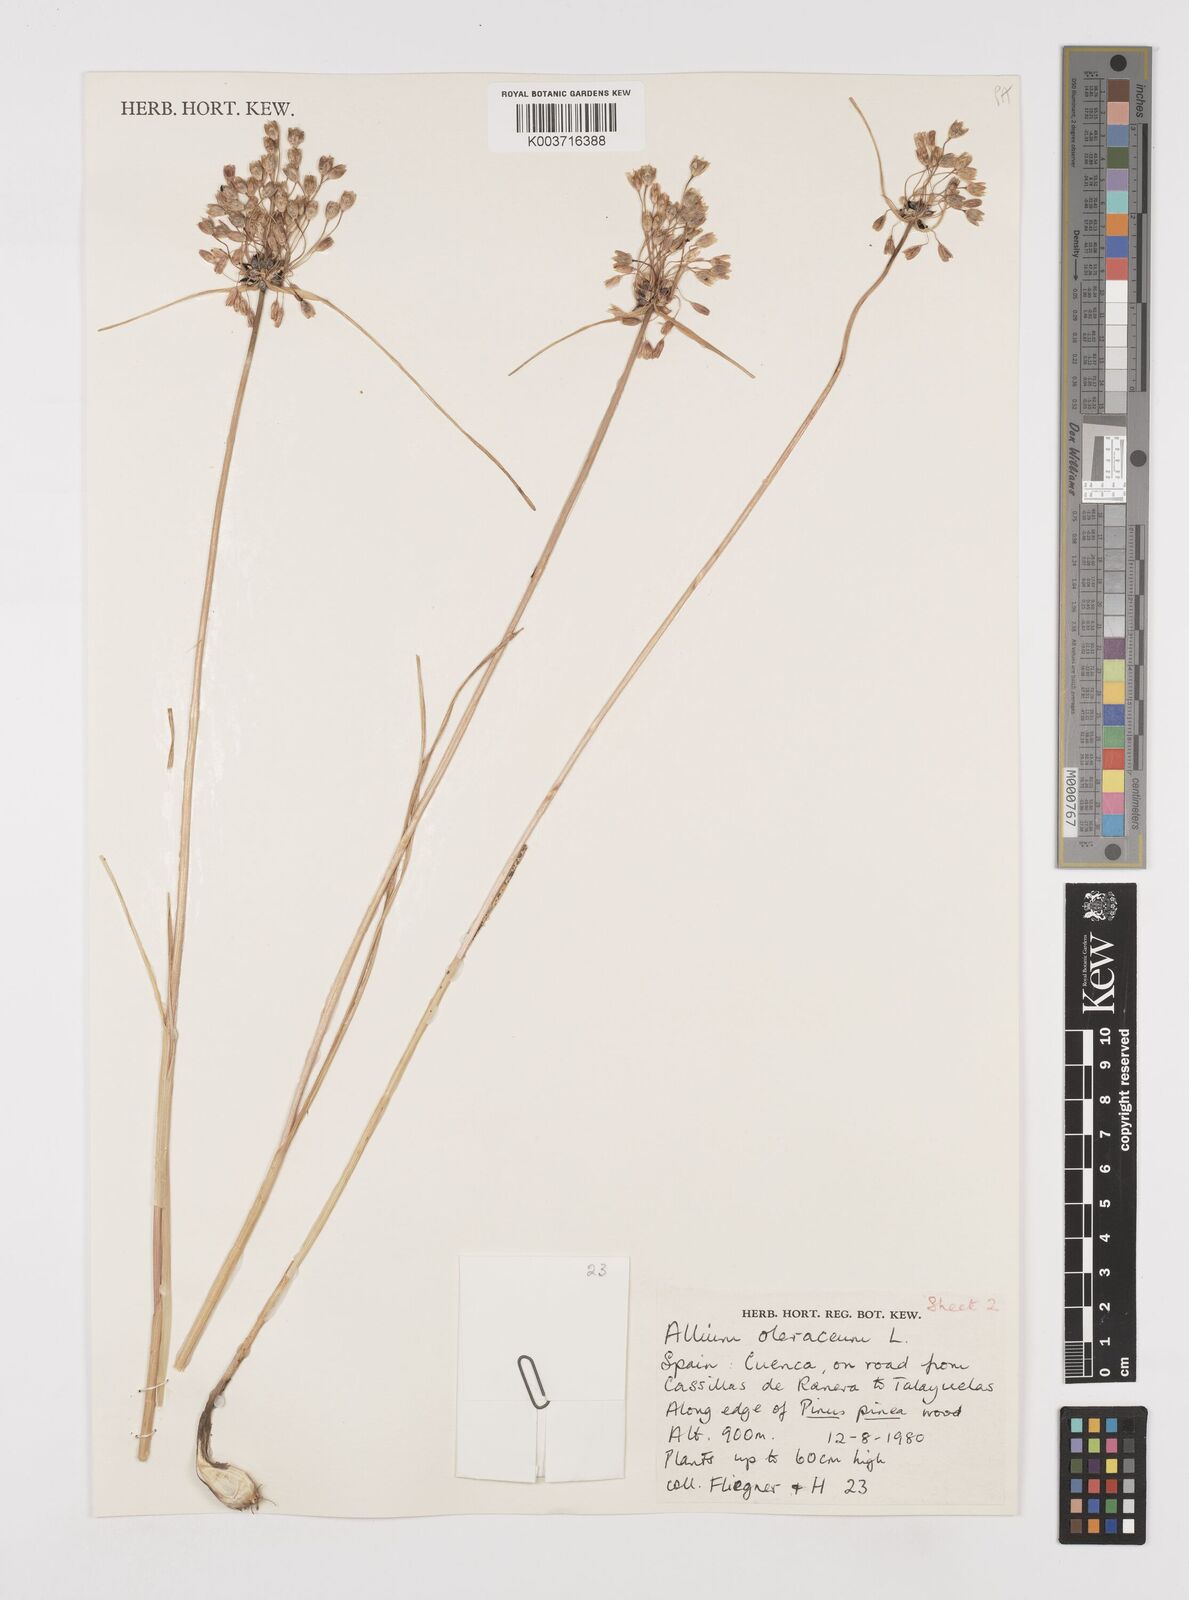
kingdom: Plantae
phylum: Tracheophyta
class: Liliopsida
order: Asparagales
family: Amaryllidaceae
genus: Allium
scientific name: Allium oleraceum
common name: Field garlic
